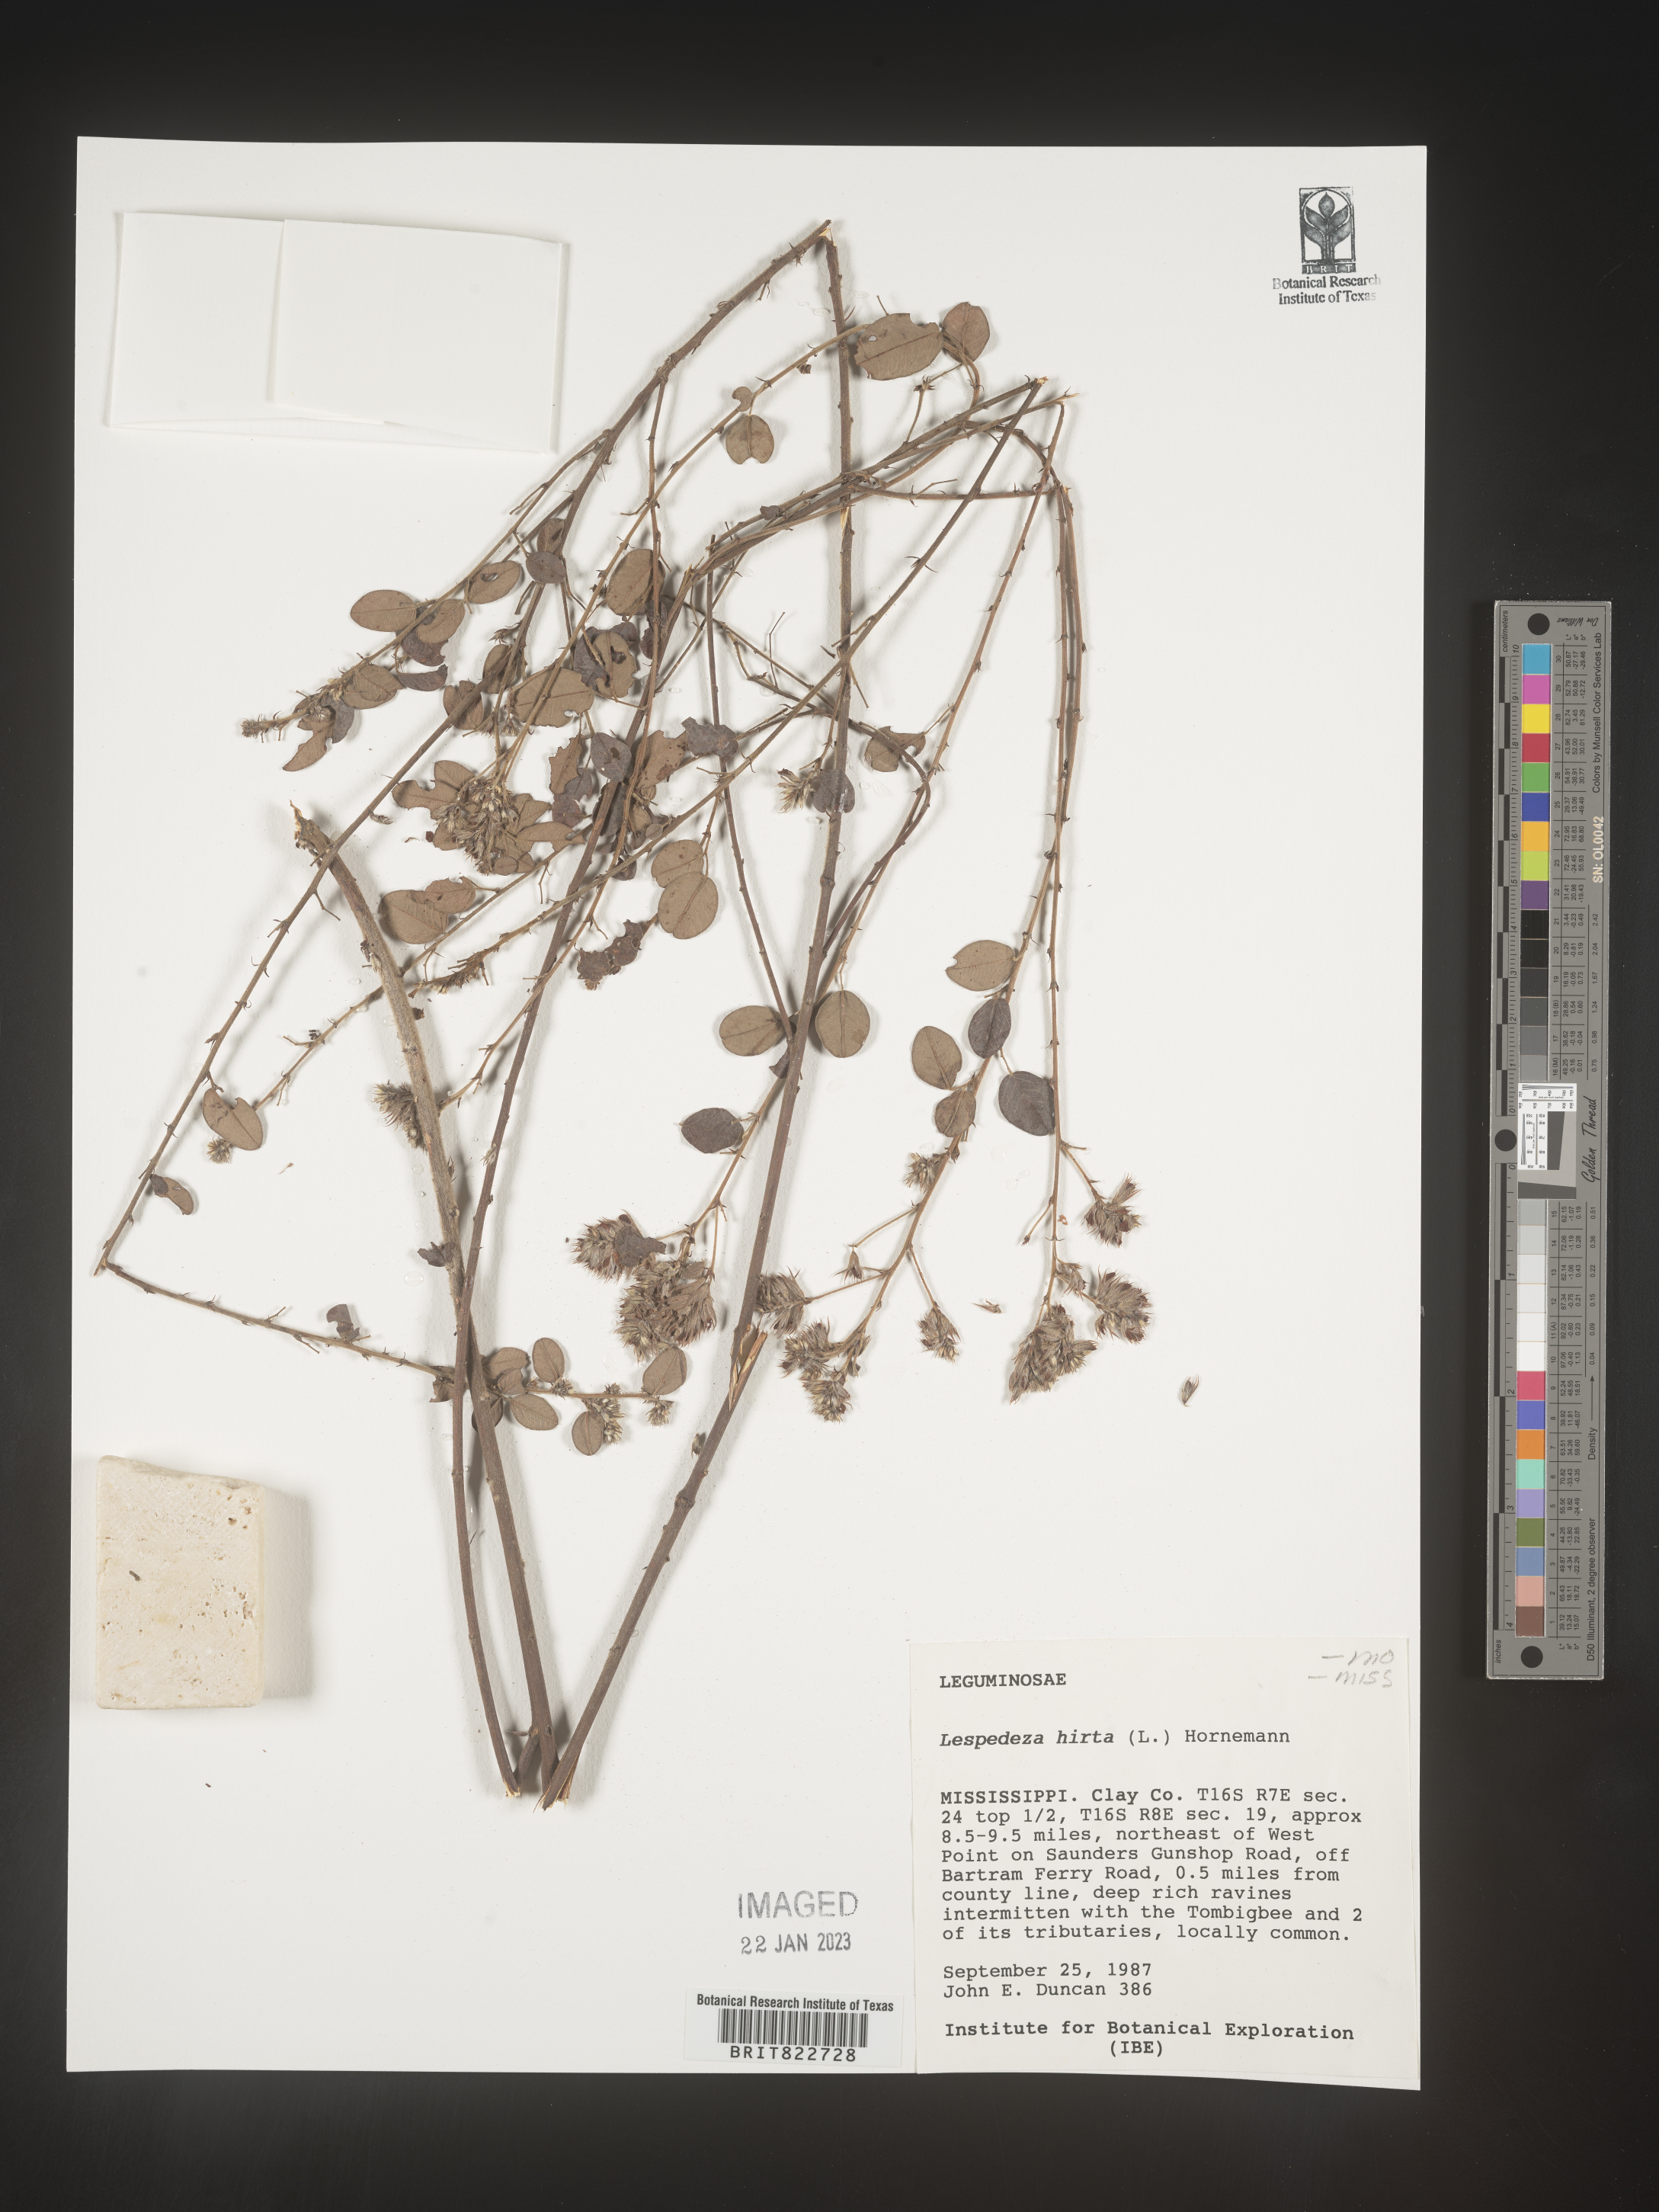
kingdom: Plantae
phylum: Tracheophyta
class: Magnoliopsida
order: Fabales
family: Fabaceae
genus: Lespedeza
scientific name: Lespedeza hirta
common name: Hairy lespedeza
